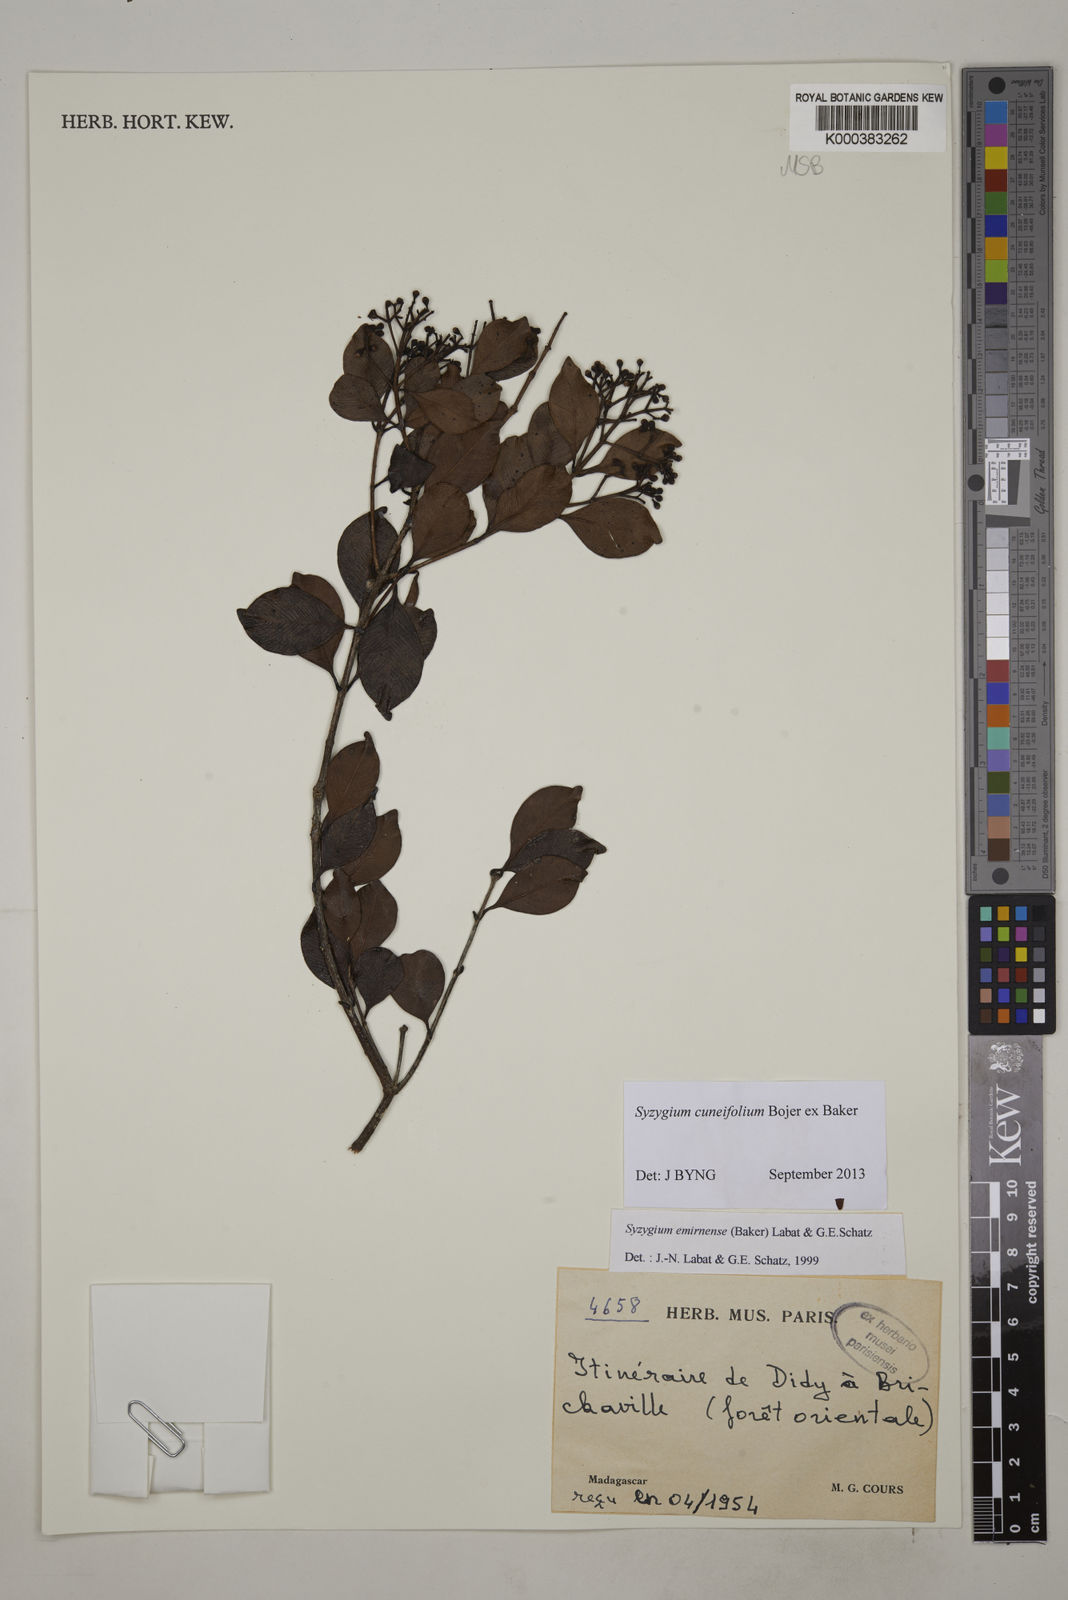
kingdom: Plantae
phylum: Tracheophyta
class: Magnoliopsida
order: Myrtales
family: Myrtaceae
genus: Syzygium
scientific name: Syzygium emirnense
